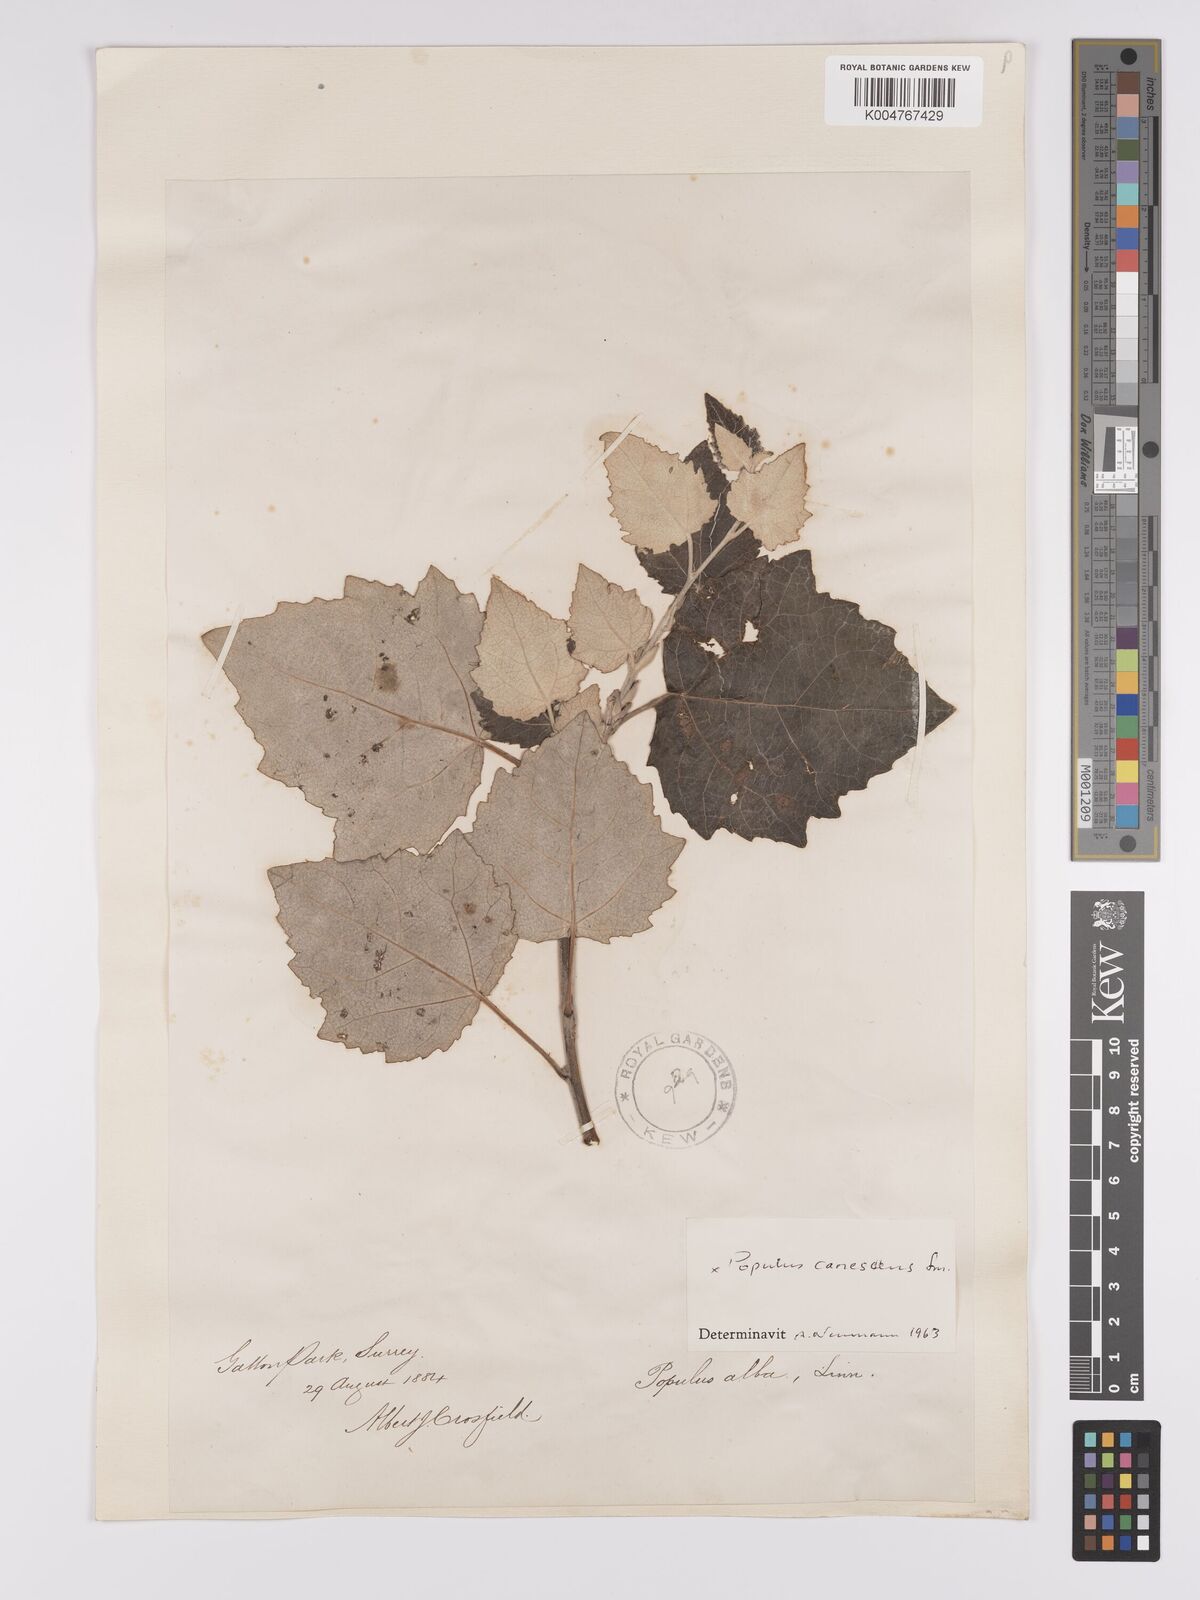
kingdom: Plantae
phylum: Tracheophyta
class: Magnoliopsida
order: Malpighiales
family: Salicaceae
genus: Populus
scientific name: Populus canescens
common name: Gray poplar
